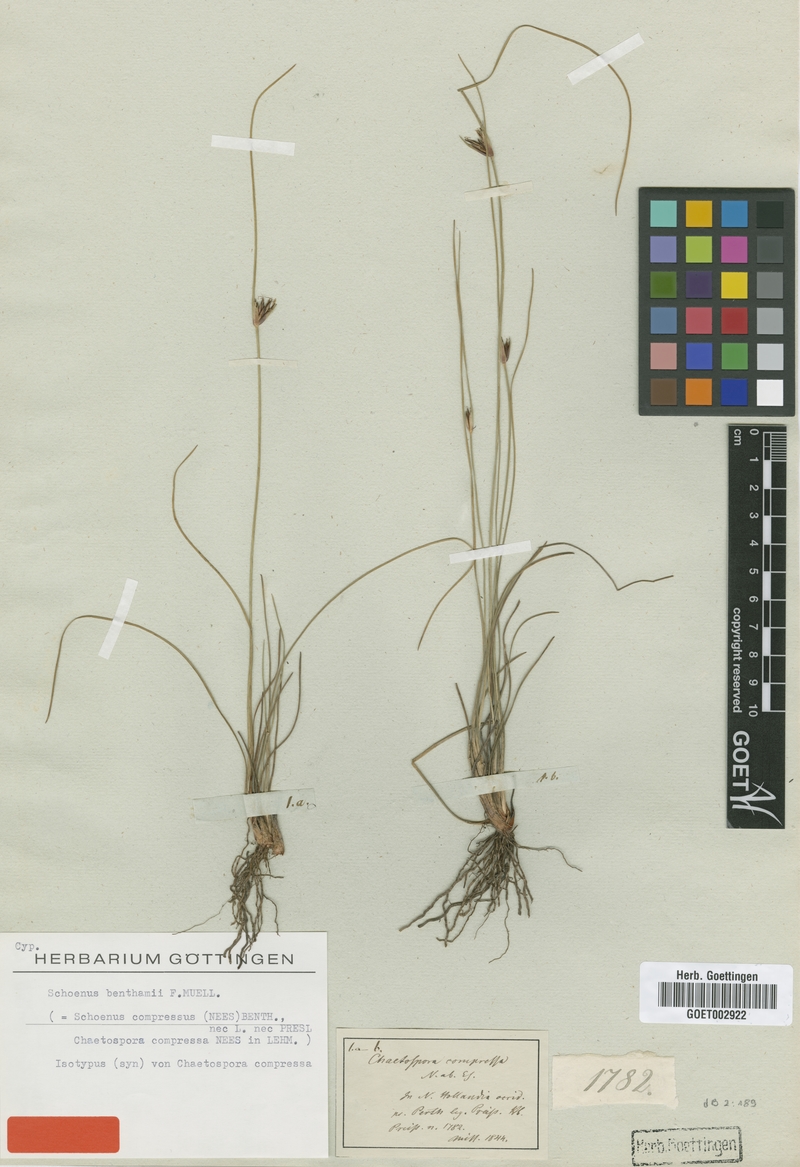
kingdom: Plantae
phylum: Tracheophyta
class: Liliopsida
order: Poales
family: Cyperaceae
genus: Schoenus
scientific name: Schoenus benthamii
